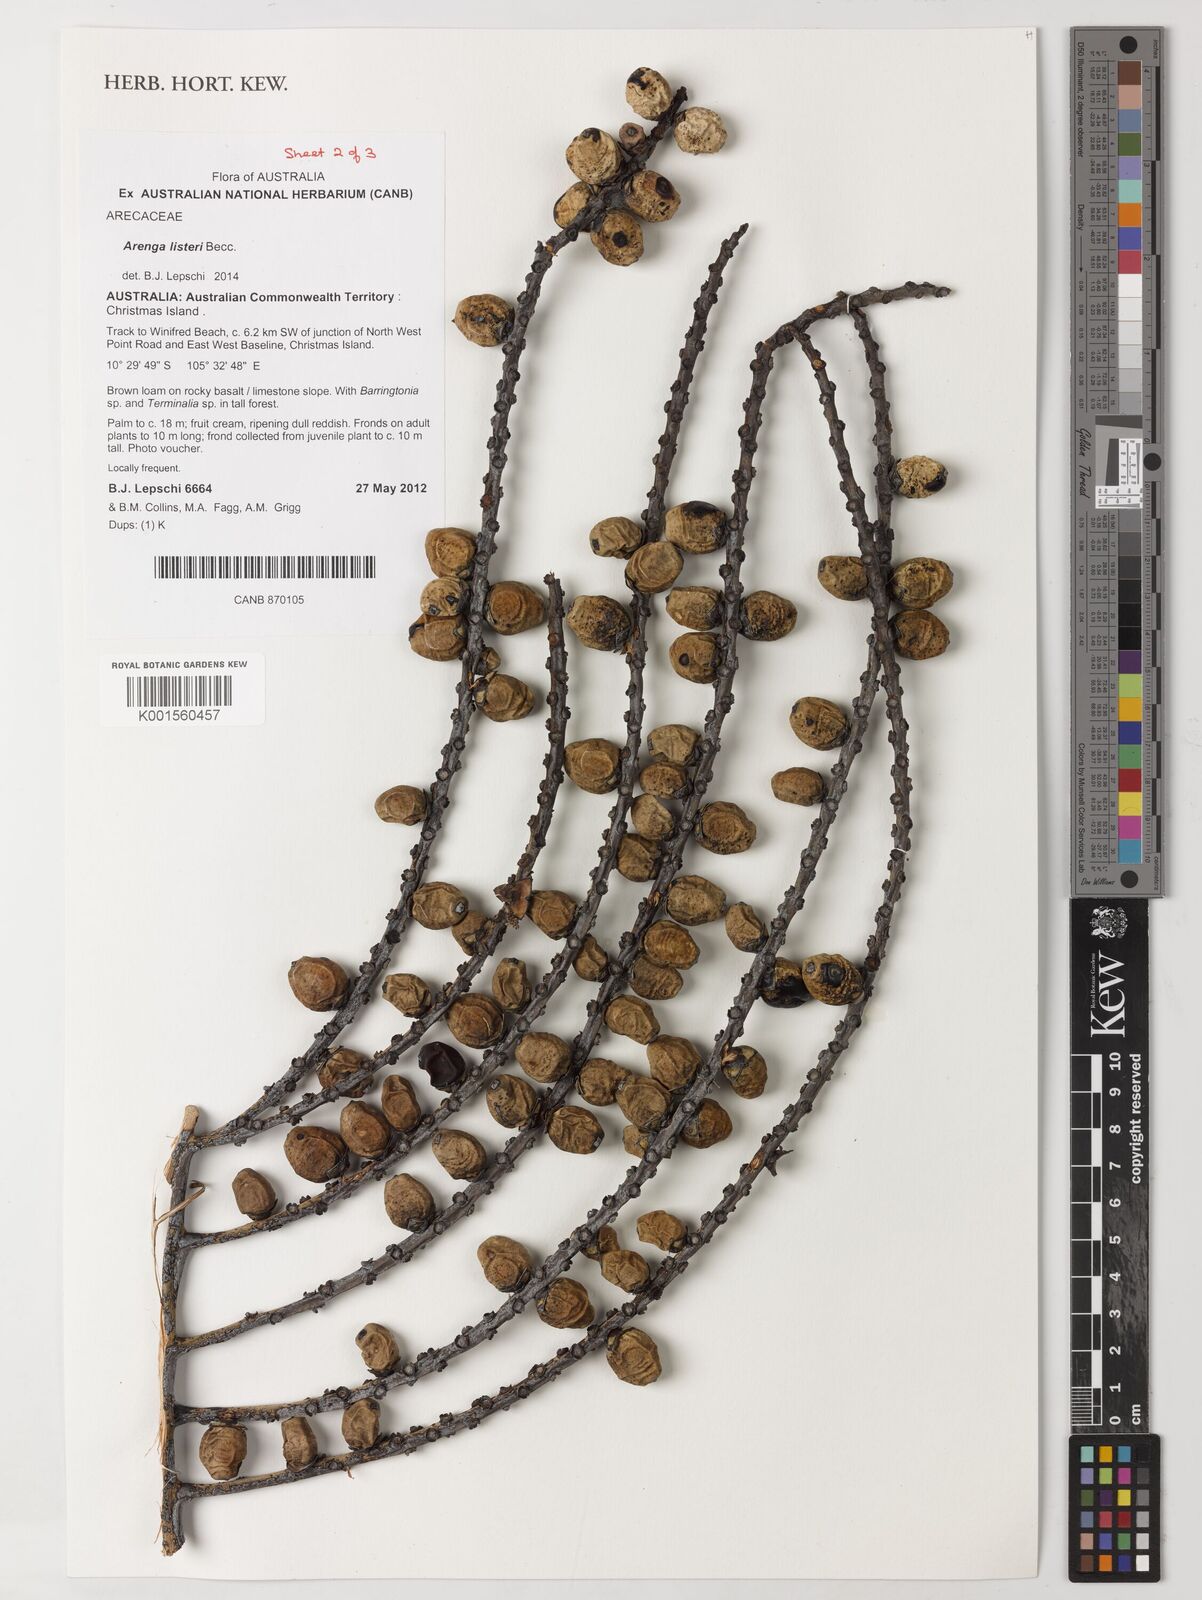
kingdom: Plantae
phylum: Tracheophyta
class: Liliopsida
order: Arecales
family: Arecaceae
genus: Arenga
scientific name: Arenga listeri
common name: Lister's palm
